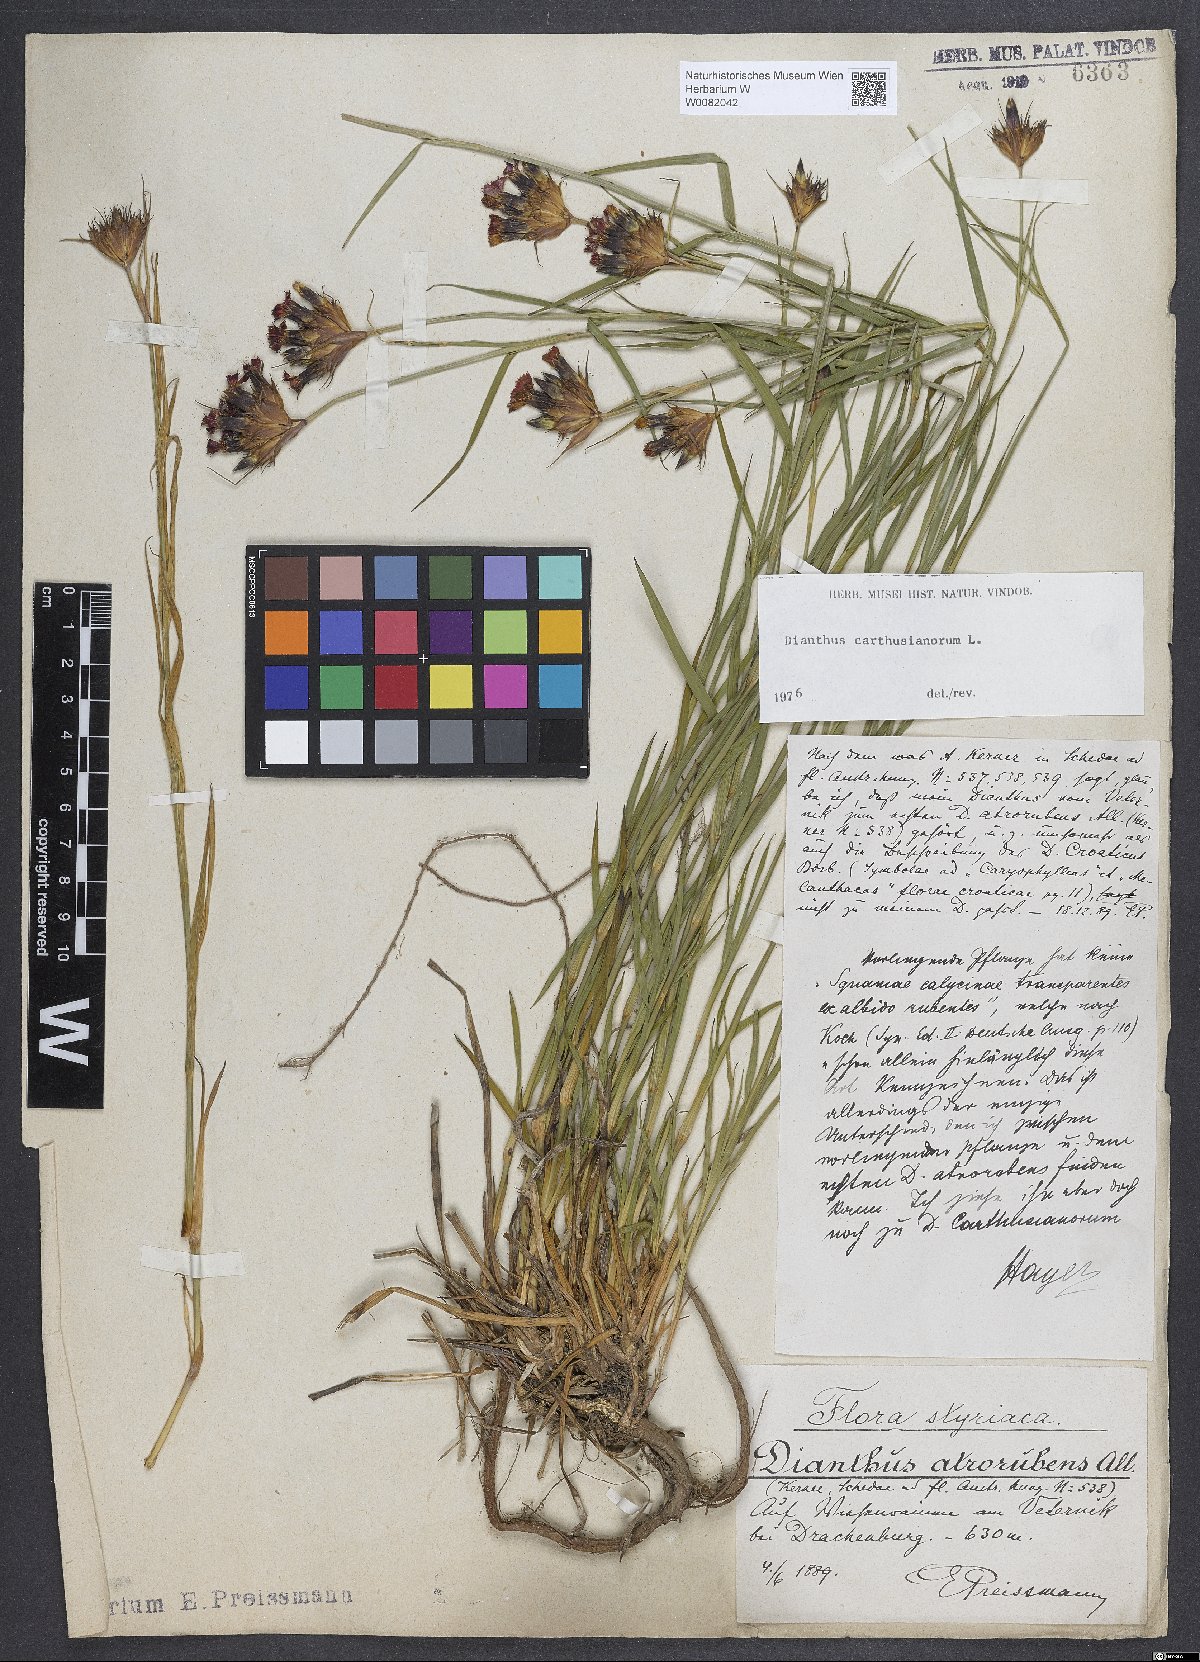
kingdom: Plantae
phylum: Tracheophyta
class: Magnoliopsida
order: Caryophyllales
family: Caryophyllaceae
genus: Dianthus
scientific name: Dianthus carthusianorum
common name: Carthusian pink
